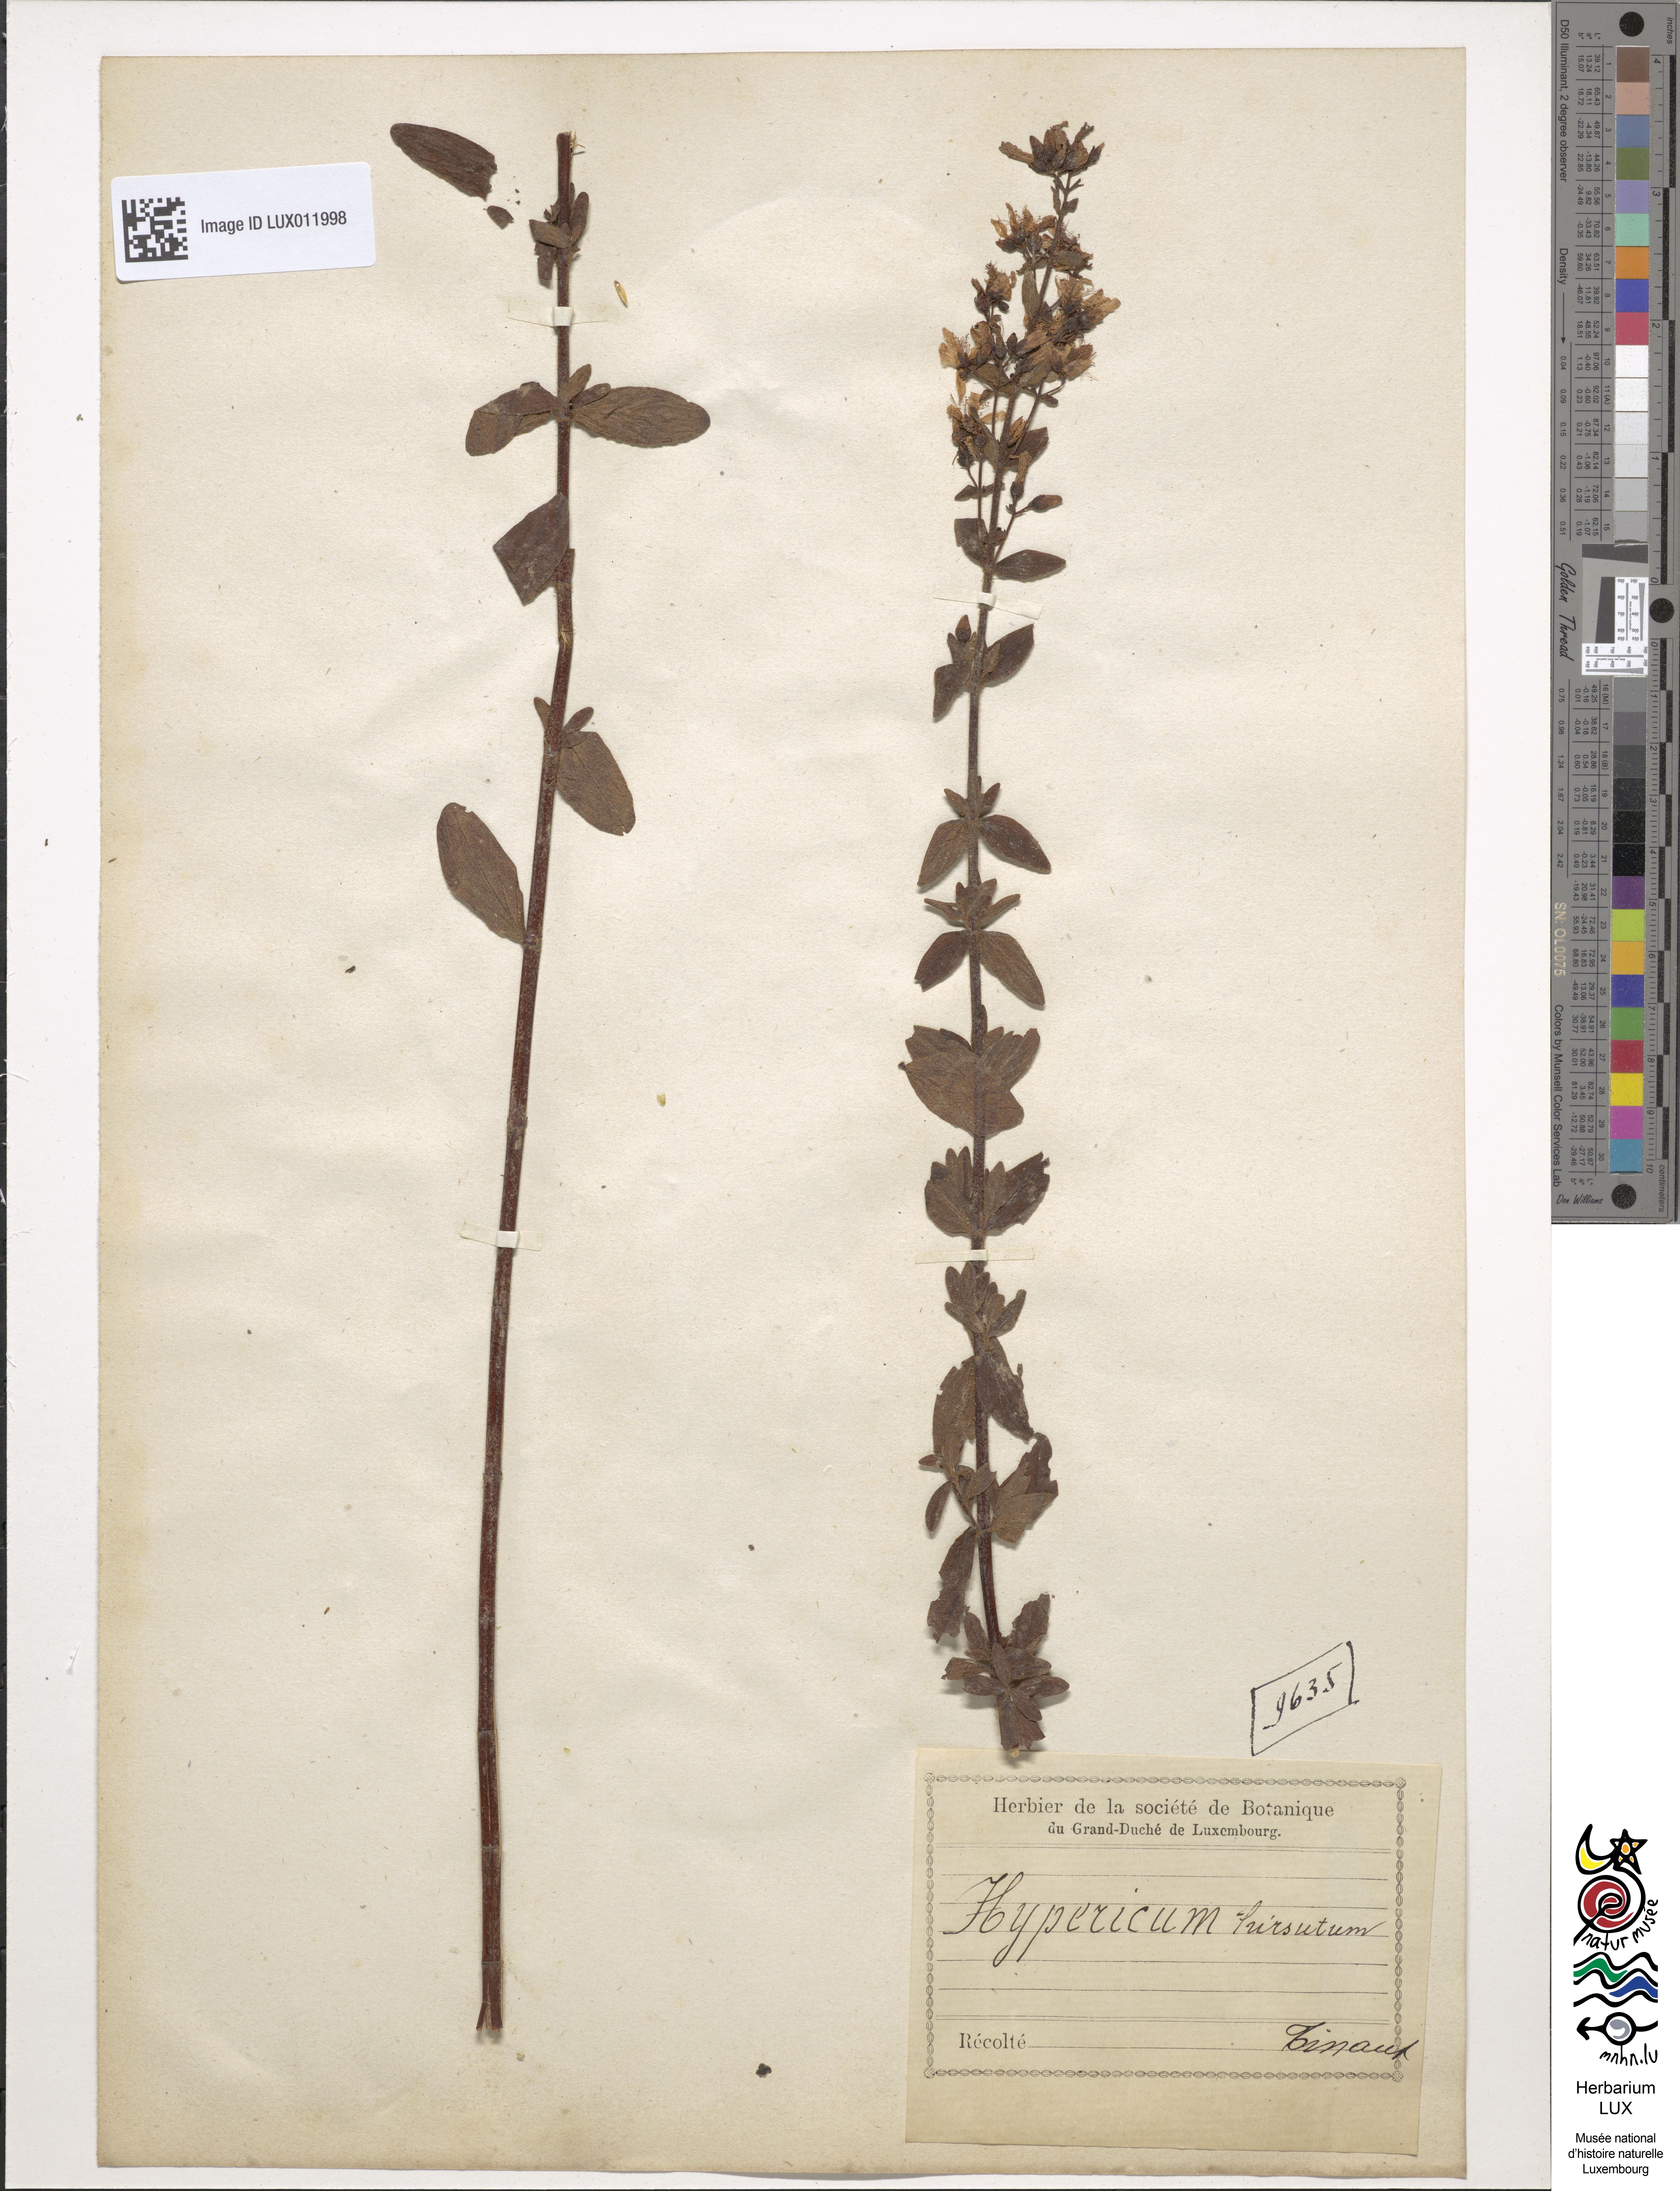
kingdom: Plantae
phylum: Tracheophyta
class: Magnoliopsida
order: Malpighiales
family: Hypericaceae
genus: Hypericum
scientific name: Hypericum hirsutum
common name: Hairy st. john's-wort
